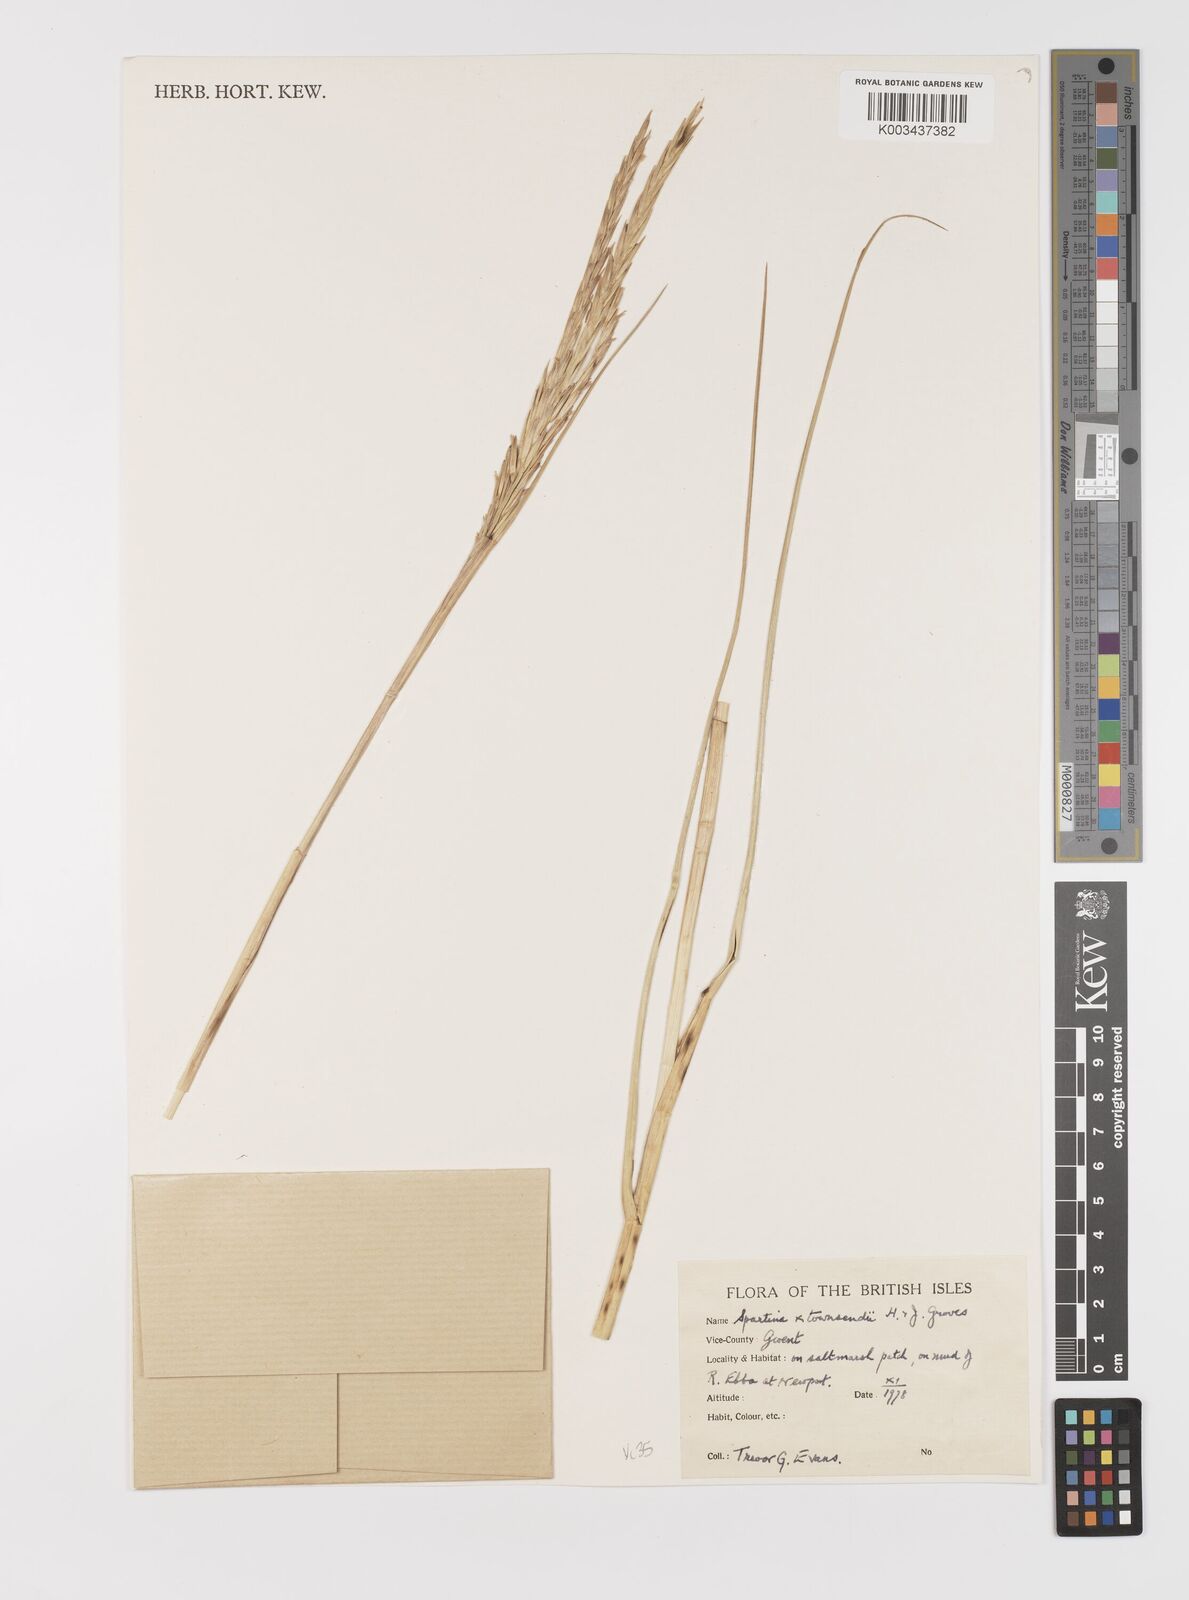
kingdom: Plantae
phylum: Tracheophyta
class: Liliopsida
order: Poales
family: Poaceae
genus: Sporobolus
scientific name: Sporobolus townsendii
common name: Townsend's cordgrass
